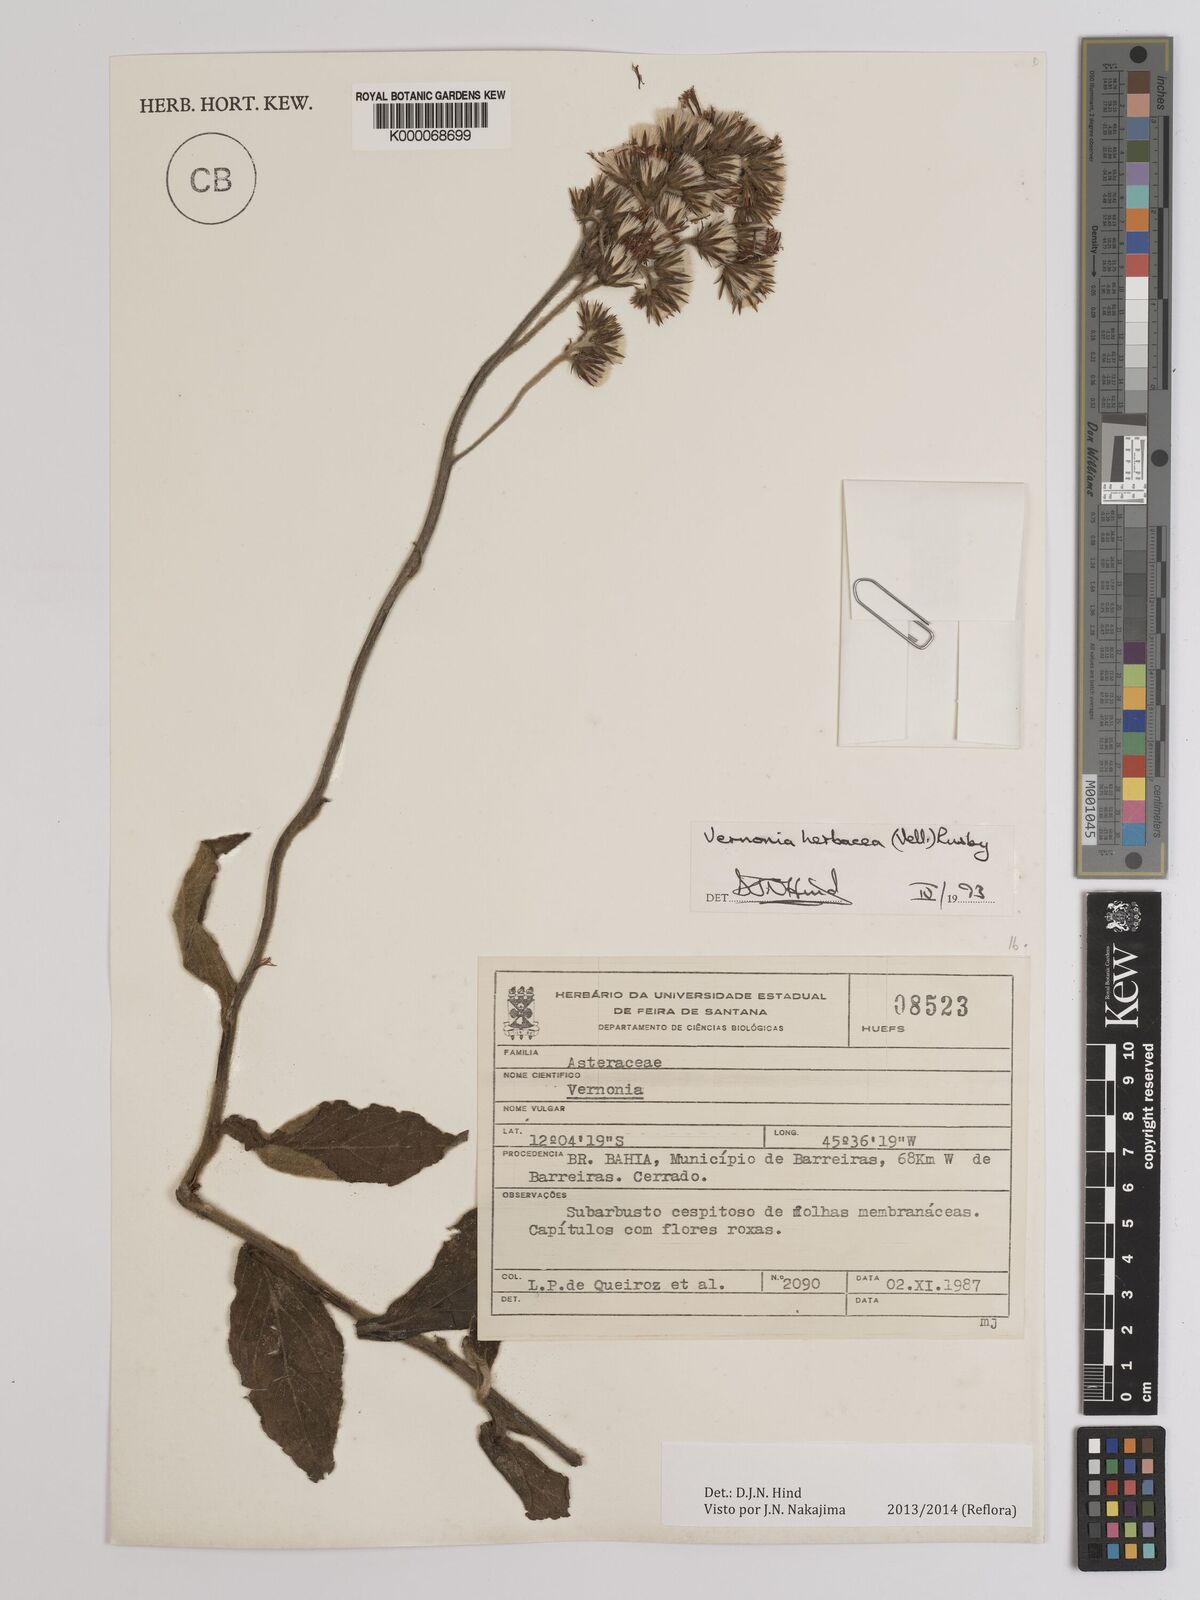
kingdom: Plantae
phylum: Tracheophyta
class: Magnoliopsida
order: Asterales
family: Asteraceae
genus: Chrysolaena
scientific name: Chrysolaena obovata
